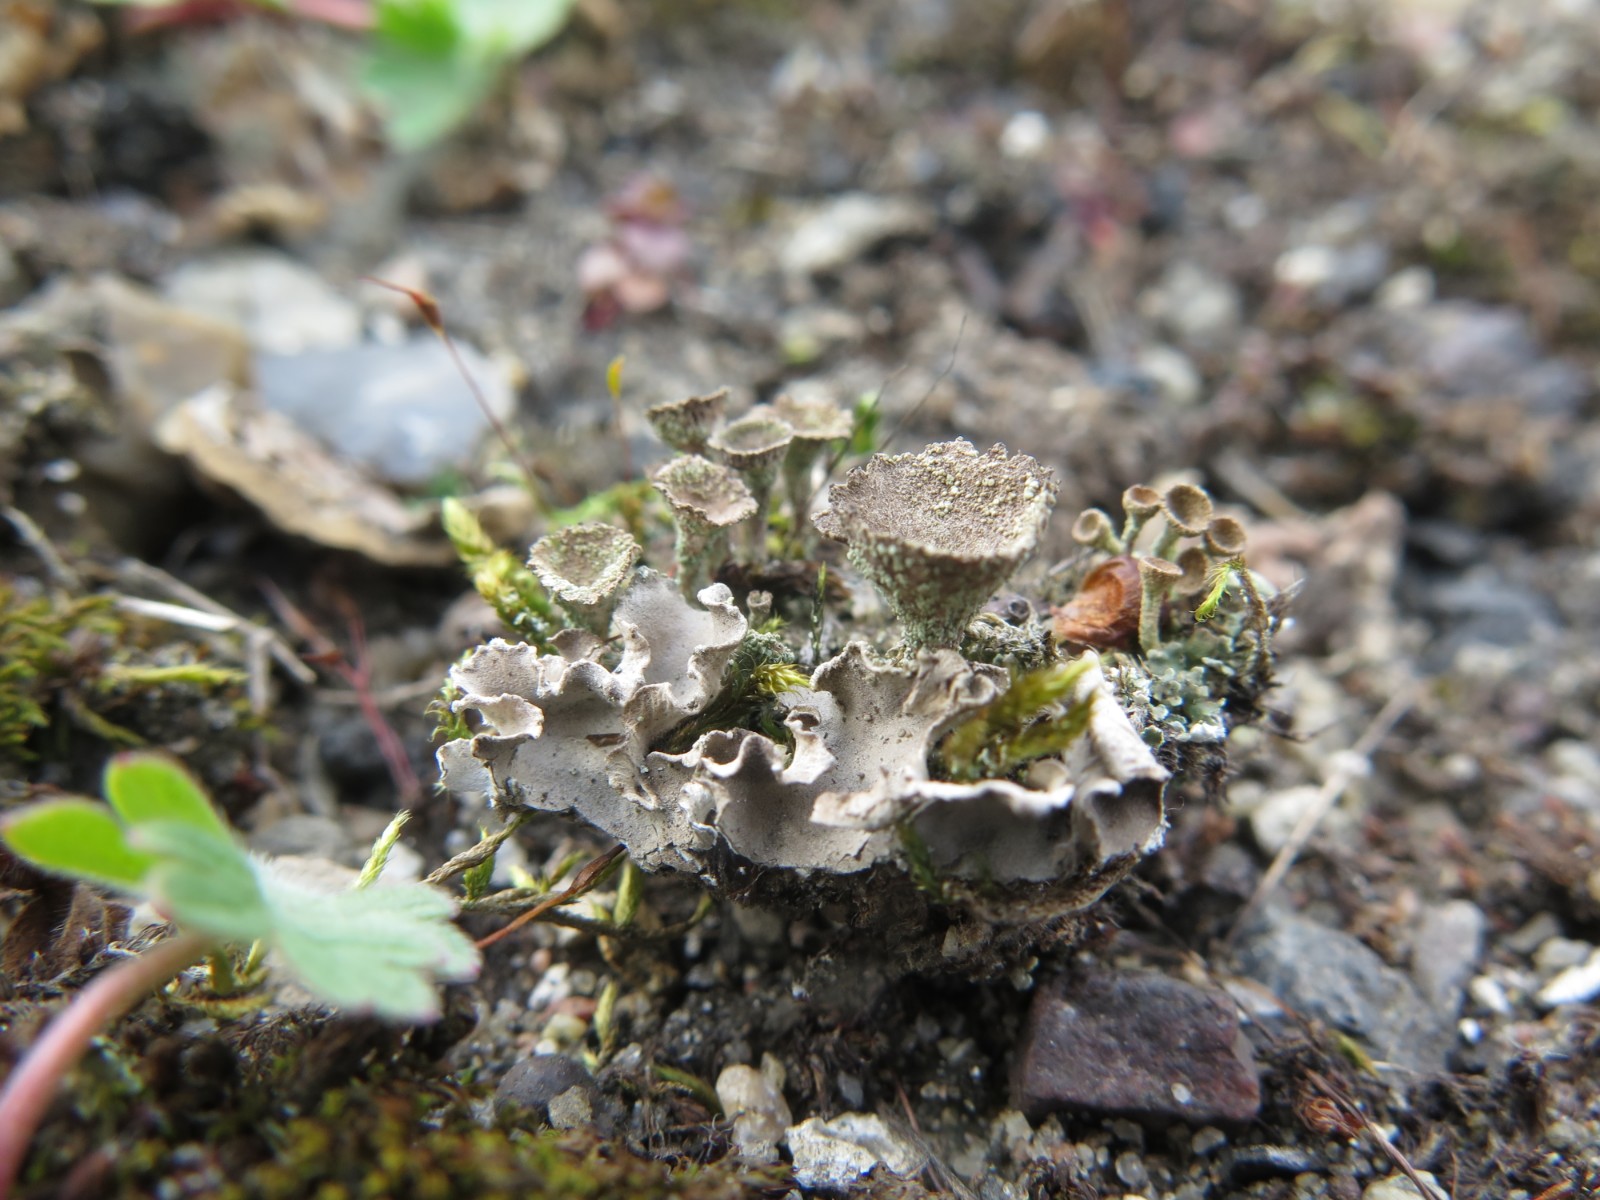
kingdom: Fungi
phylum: Ascomycota
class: Lecanoromycetes
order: Lecanorales
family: Cladoniaceae
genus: Cladonia
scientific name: Cladonia
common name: brungrøn bægerlav
